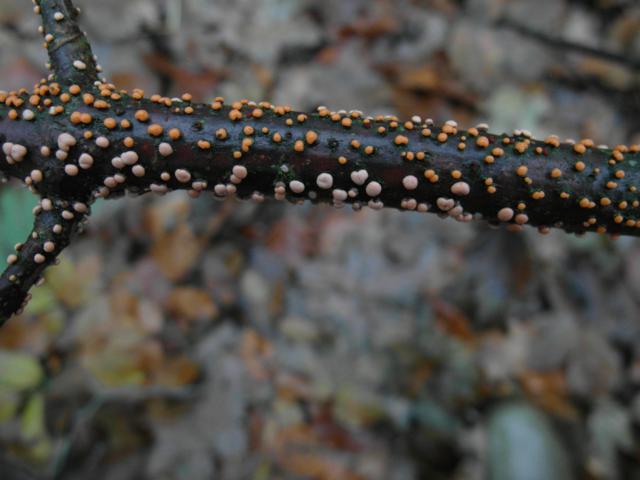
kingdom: Fungi
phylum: Ascomycota
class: Sordariomycetes
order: Hypocreales
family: Nectriaceae
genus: Nectria
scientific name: Nectria cinnabarina
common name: almindelig cinnobersvamp
